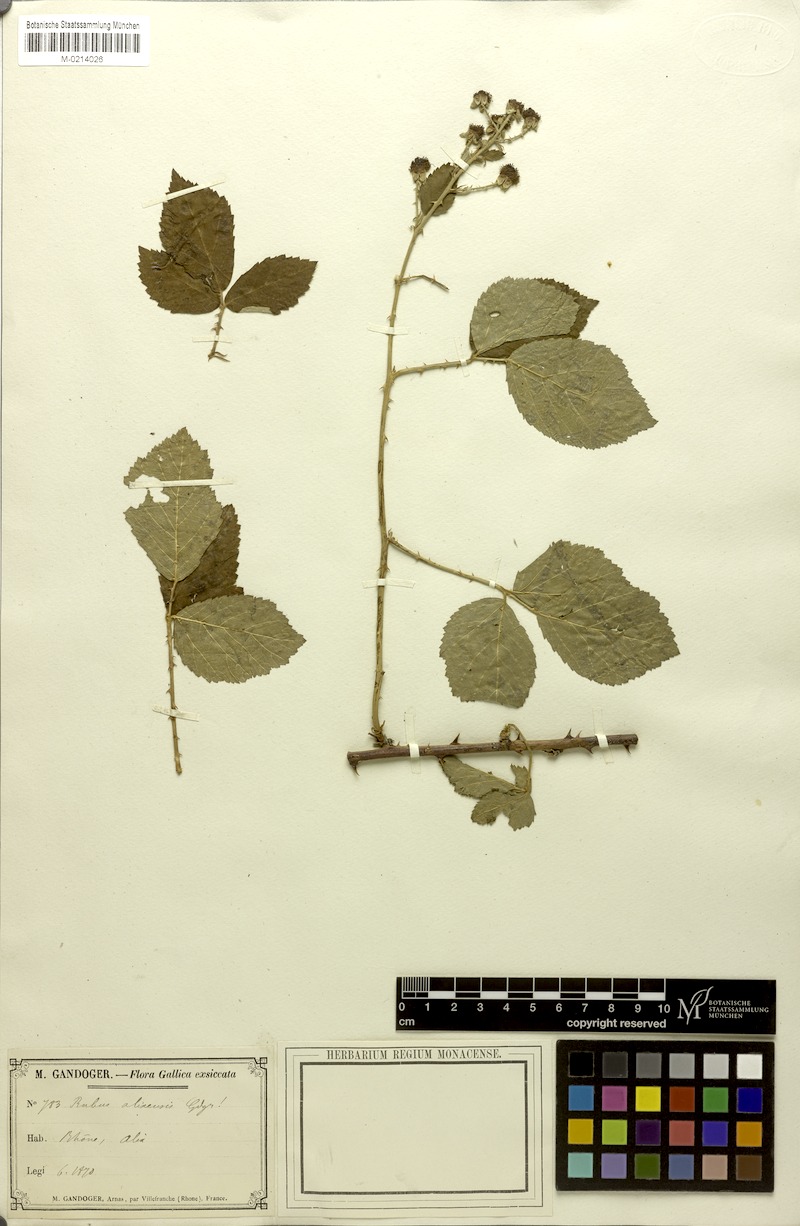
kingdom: Plantae
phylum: Tracheophyta
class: Magnoliopsida
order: Rosales
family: Rosaceae
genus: Rubus
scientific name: Rubus
